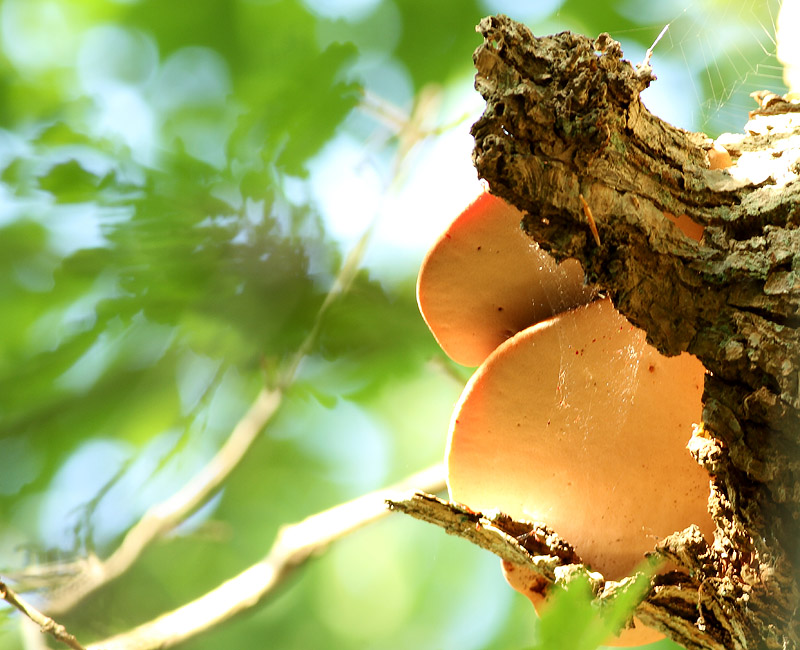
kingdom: Fungi
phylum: Basidiomycota
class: Agaricomycetes
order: Agaricales
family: Fistulinaceae
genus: Fistulina
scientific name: Fistulina hepatica
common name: oksetunge
